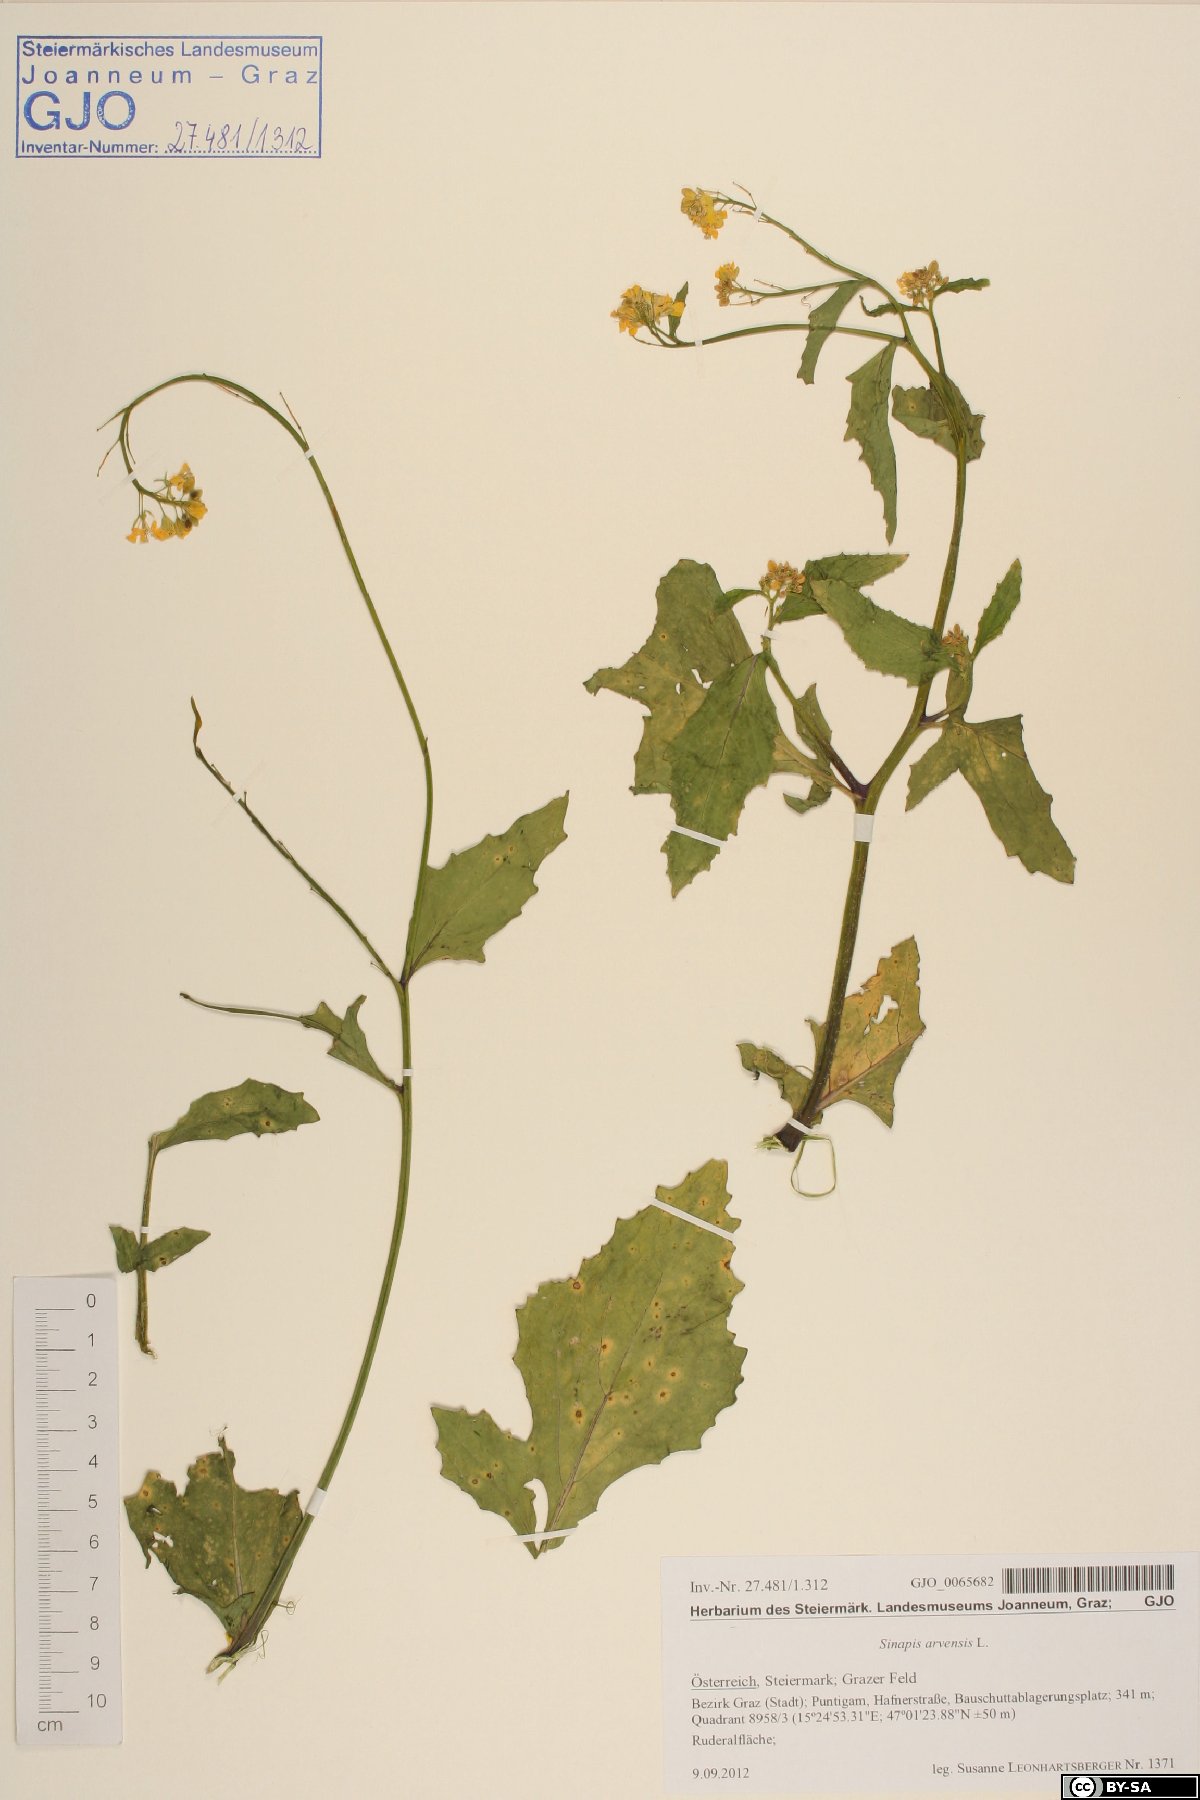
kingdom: Plantae
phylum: Tracheophyta
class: Magnoliopsida
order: Brassicales
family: Brassicaceae
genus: Sinapis
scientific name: Sinapis arvensis
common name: Charlock
